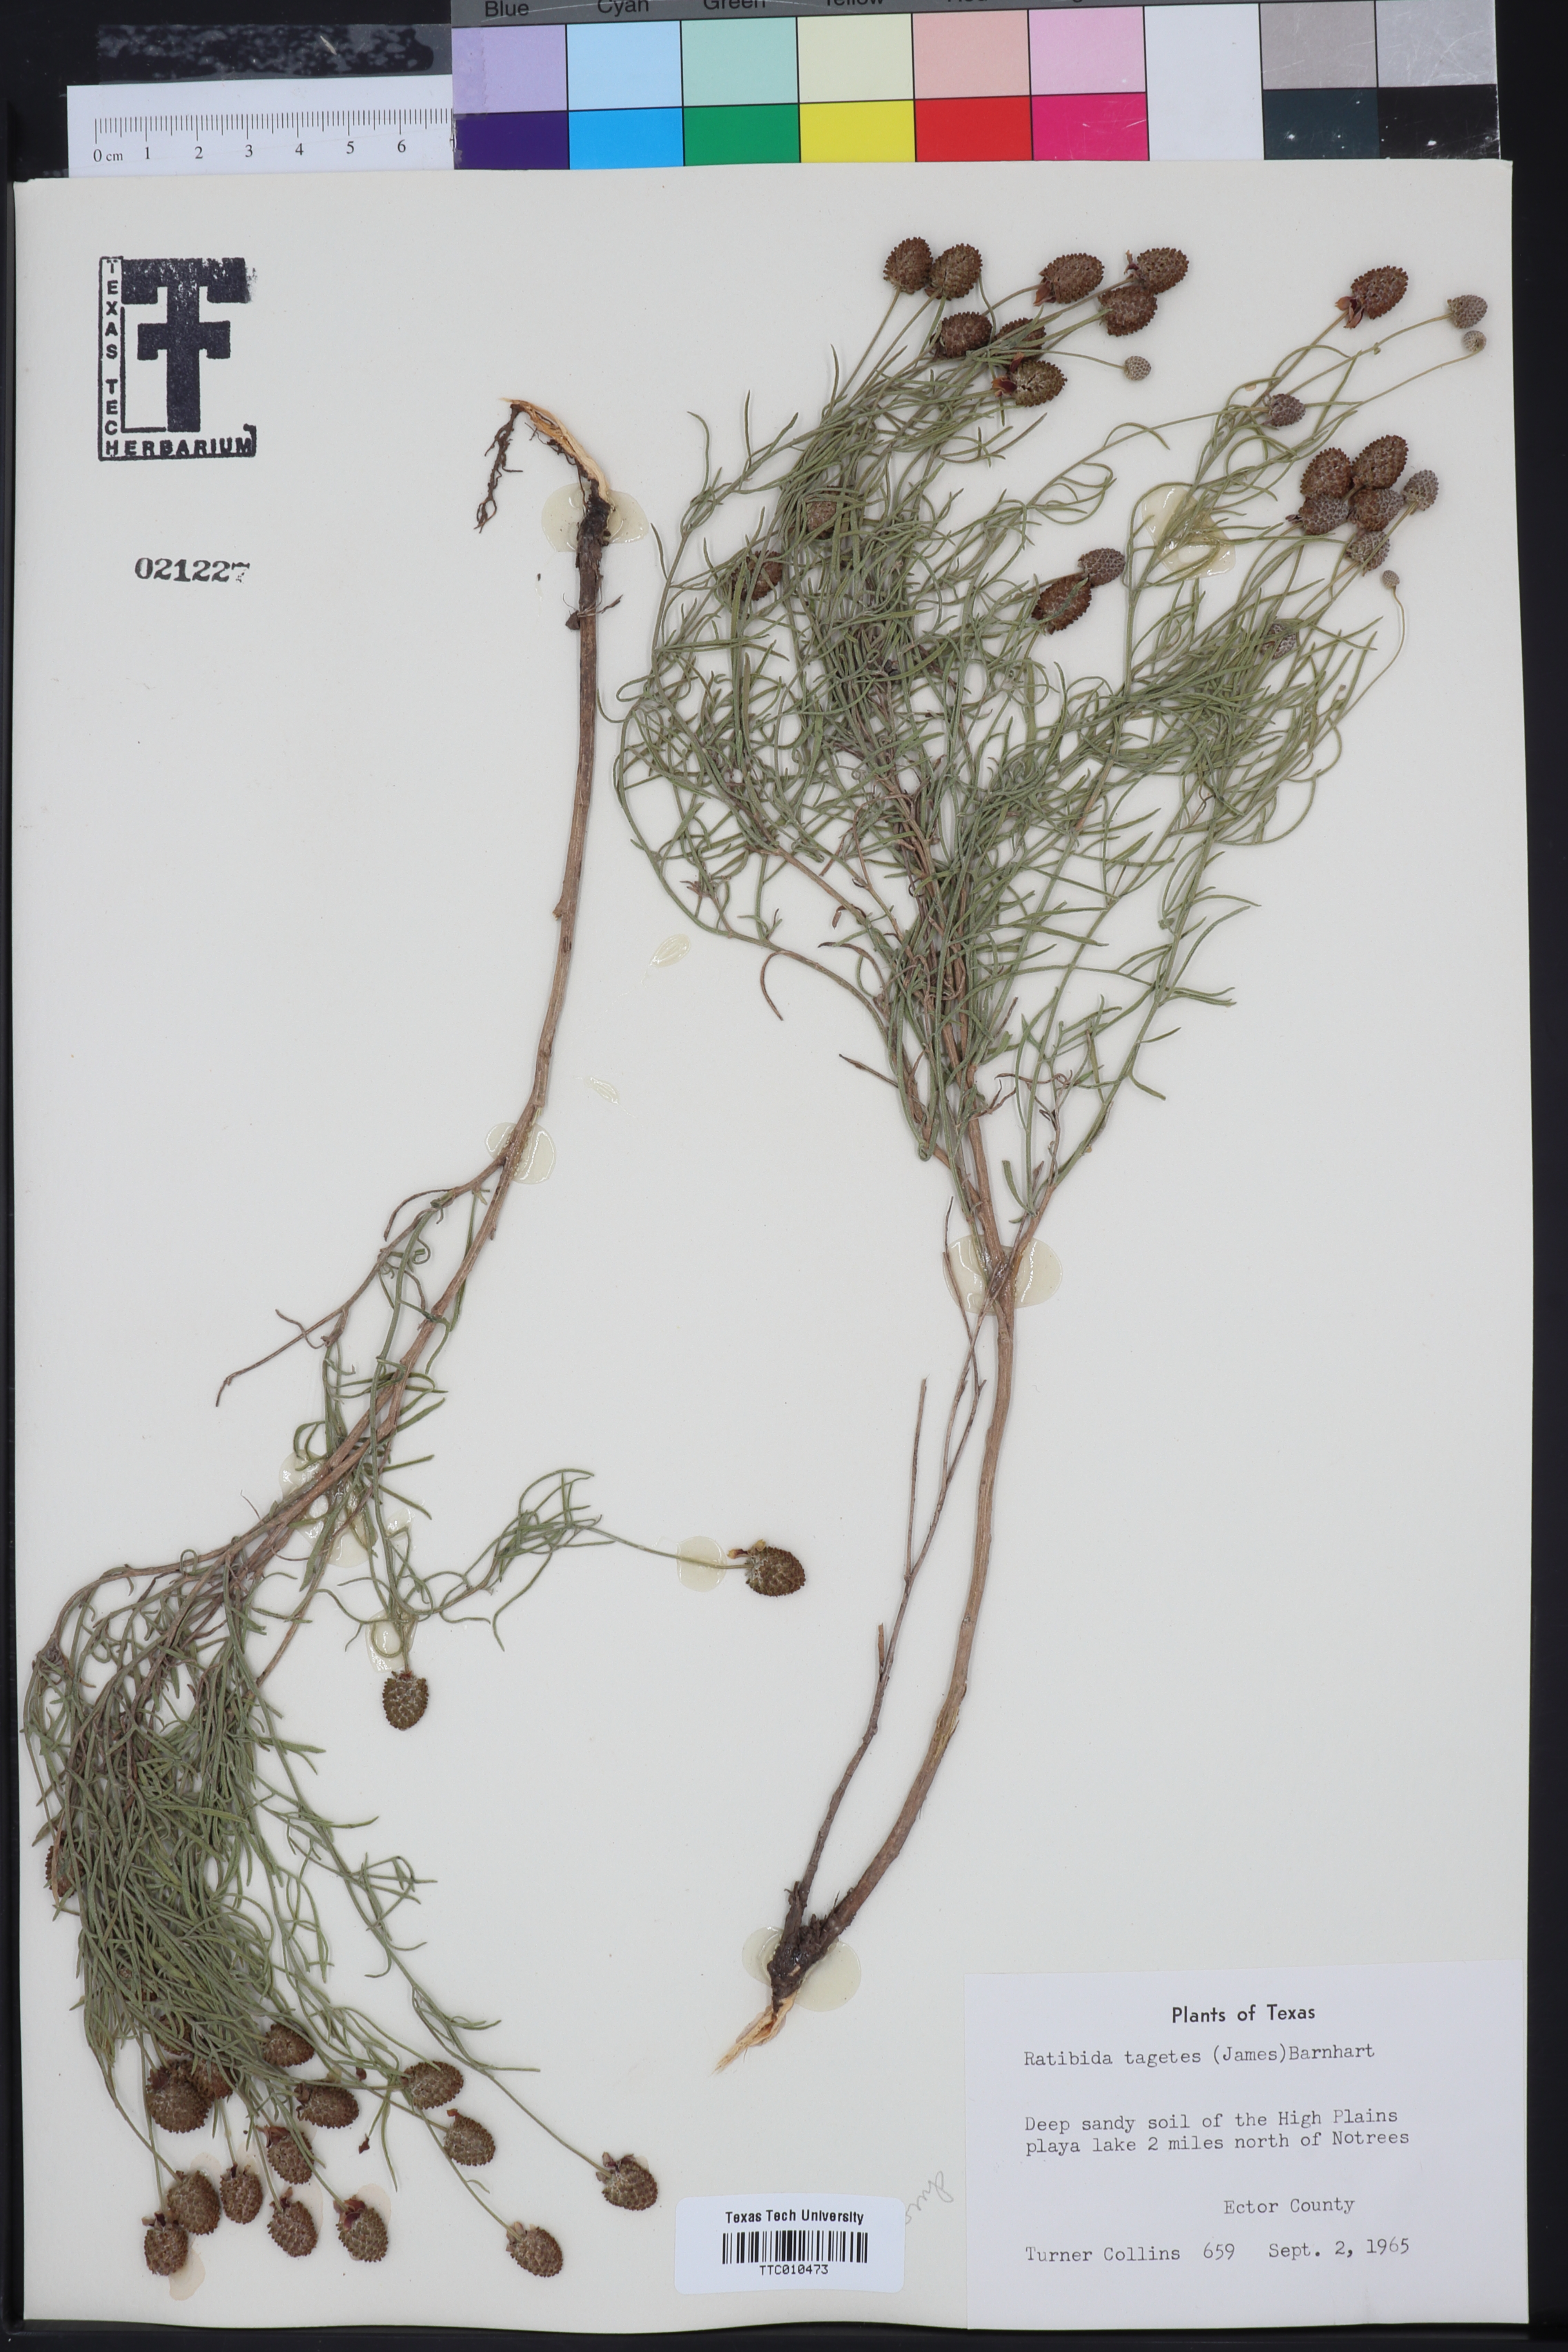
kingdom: Plantae
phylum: Tracheophyta
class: Magnoliopsida
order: Asterales
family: Asteraceae
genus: Ratibida
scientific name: Ratibida tagetes
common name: Green mexican-hat
